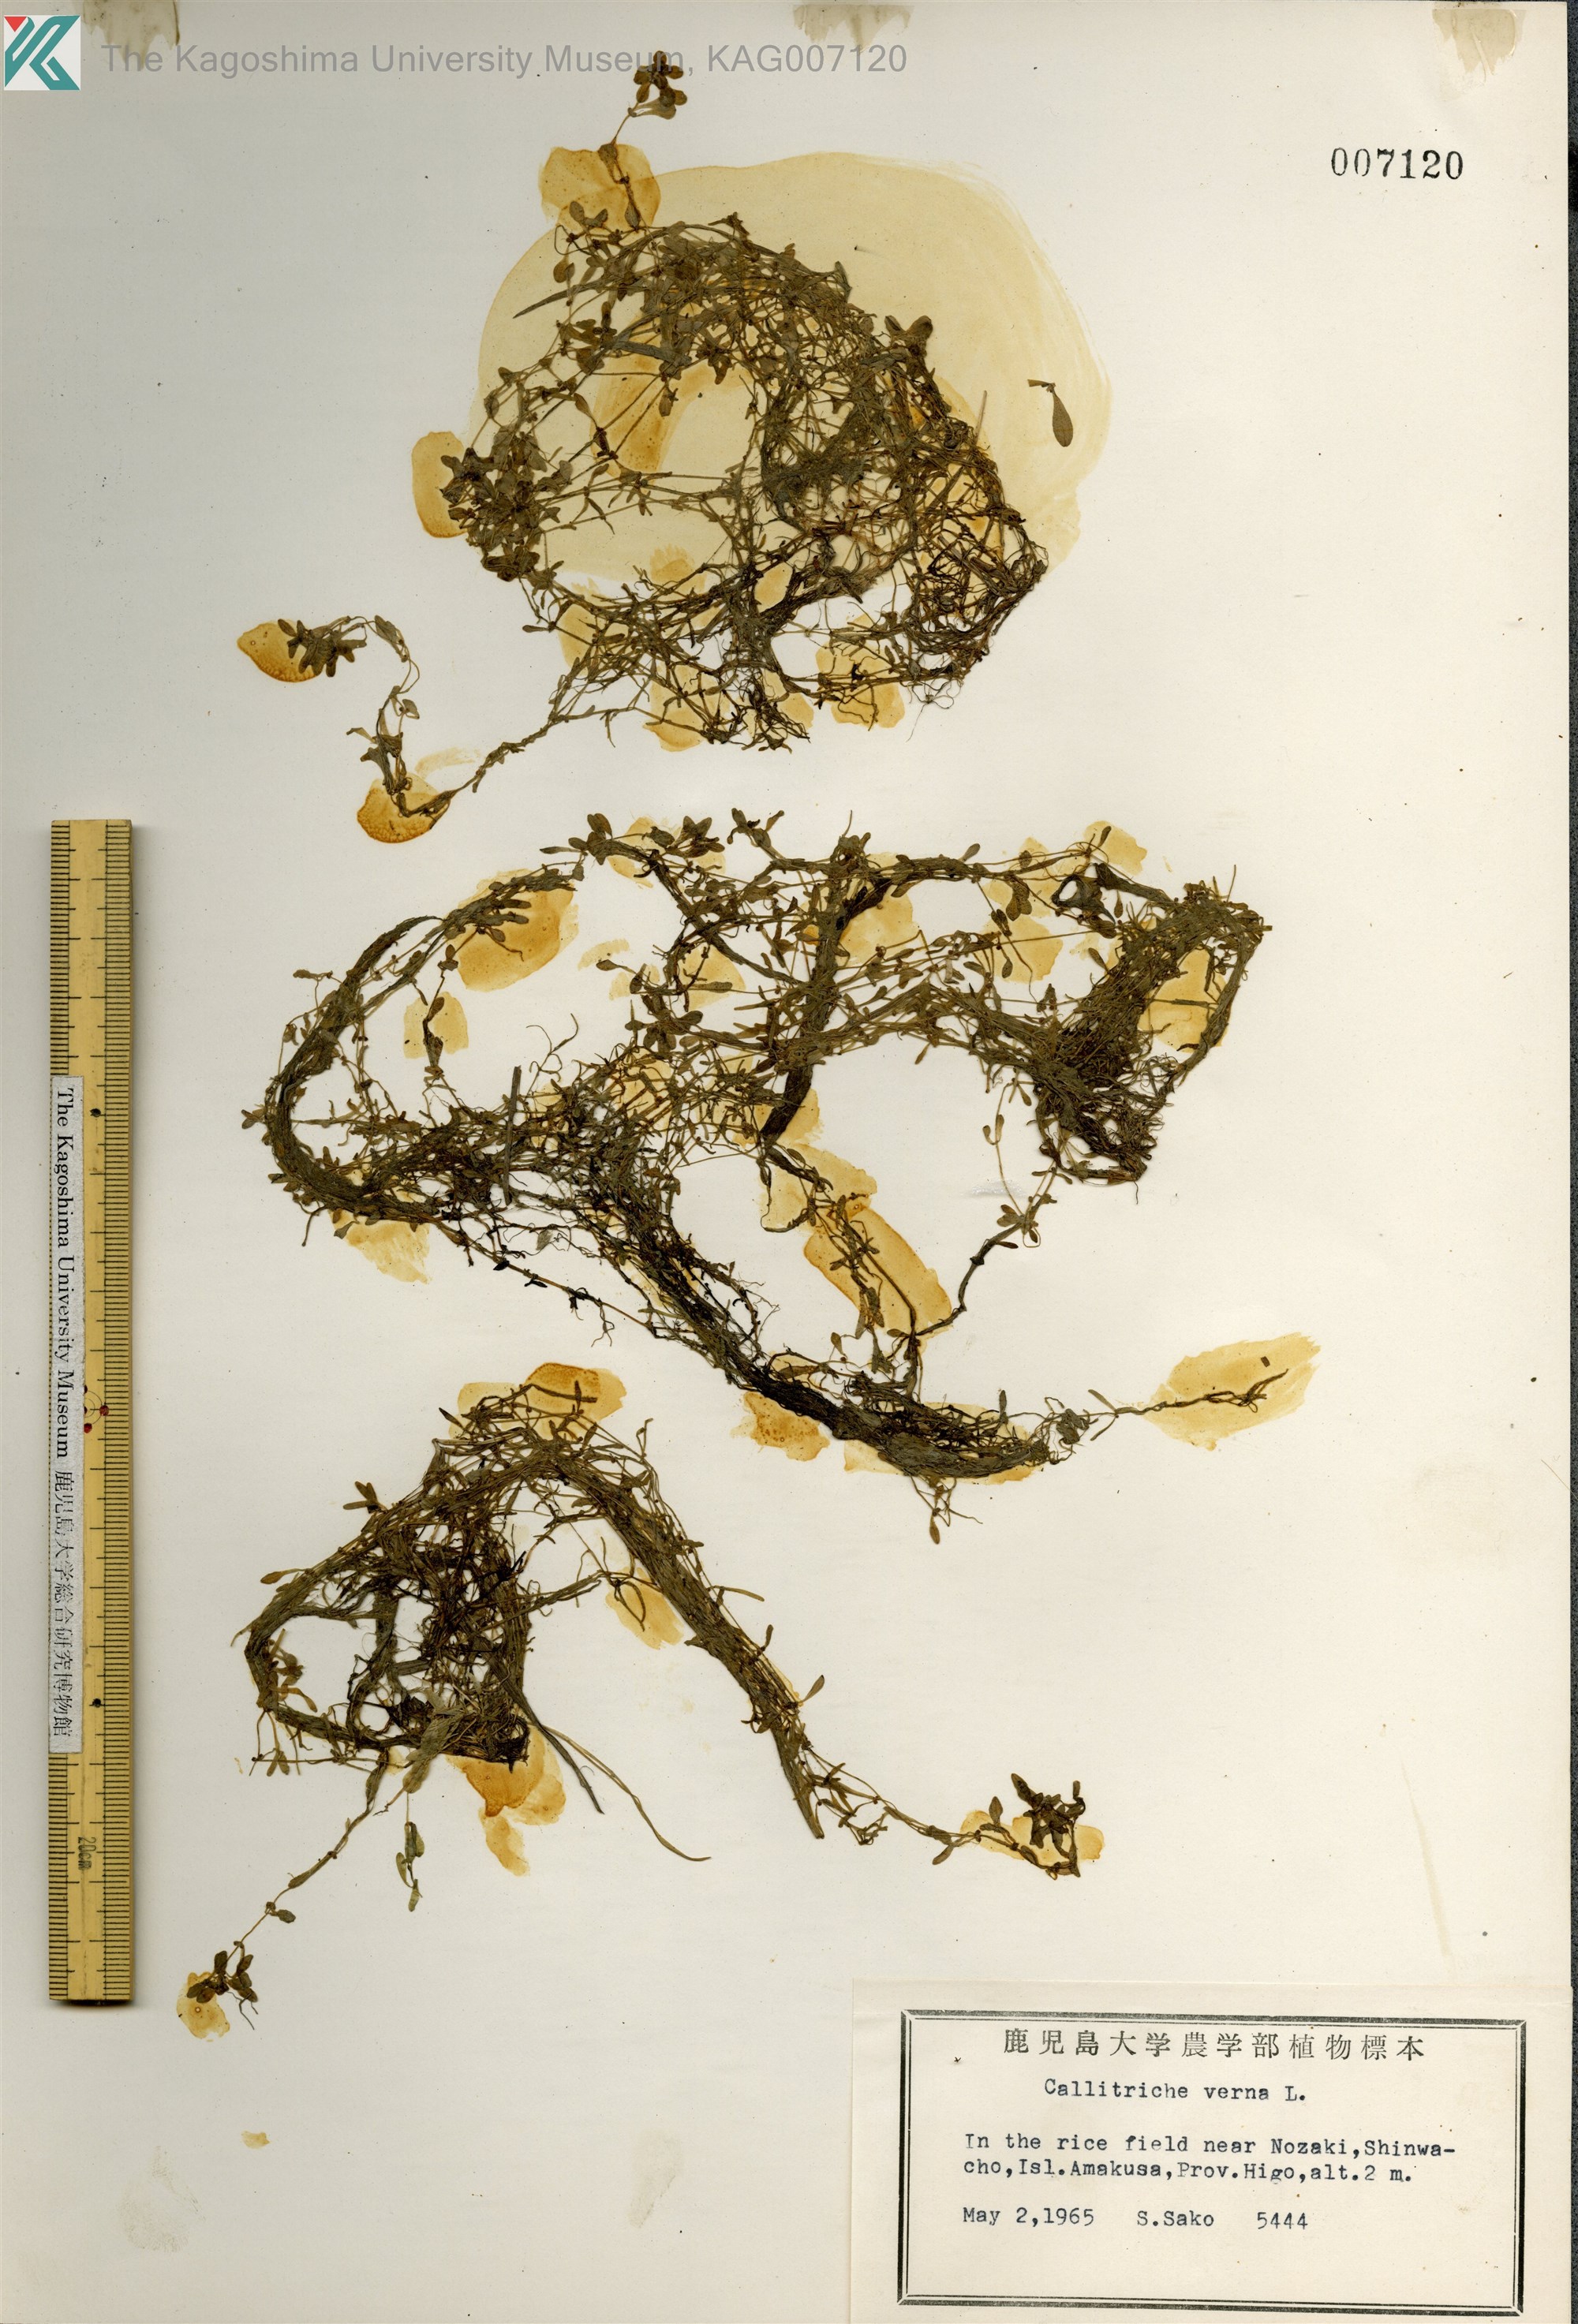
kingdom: Plantae
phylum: Tracheophyta
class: Magnoliopsida
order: Lamiales
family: Plantaginaceae
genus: Callitriche
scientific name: Callitriche palustris
